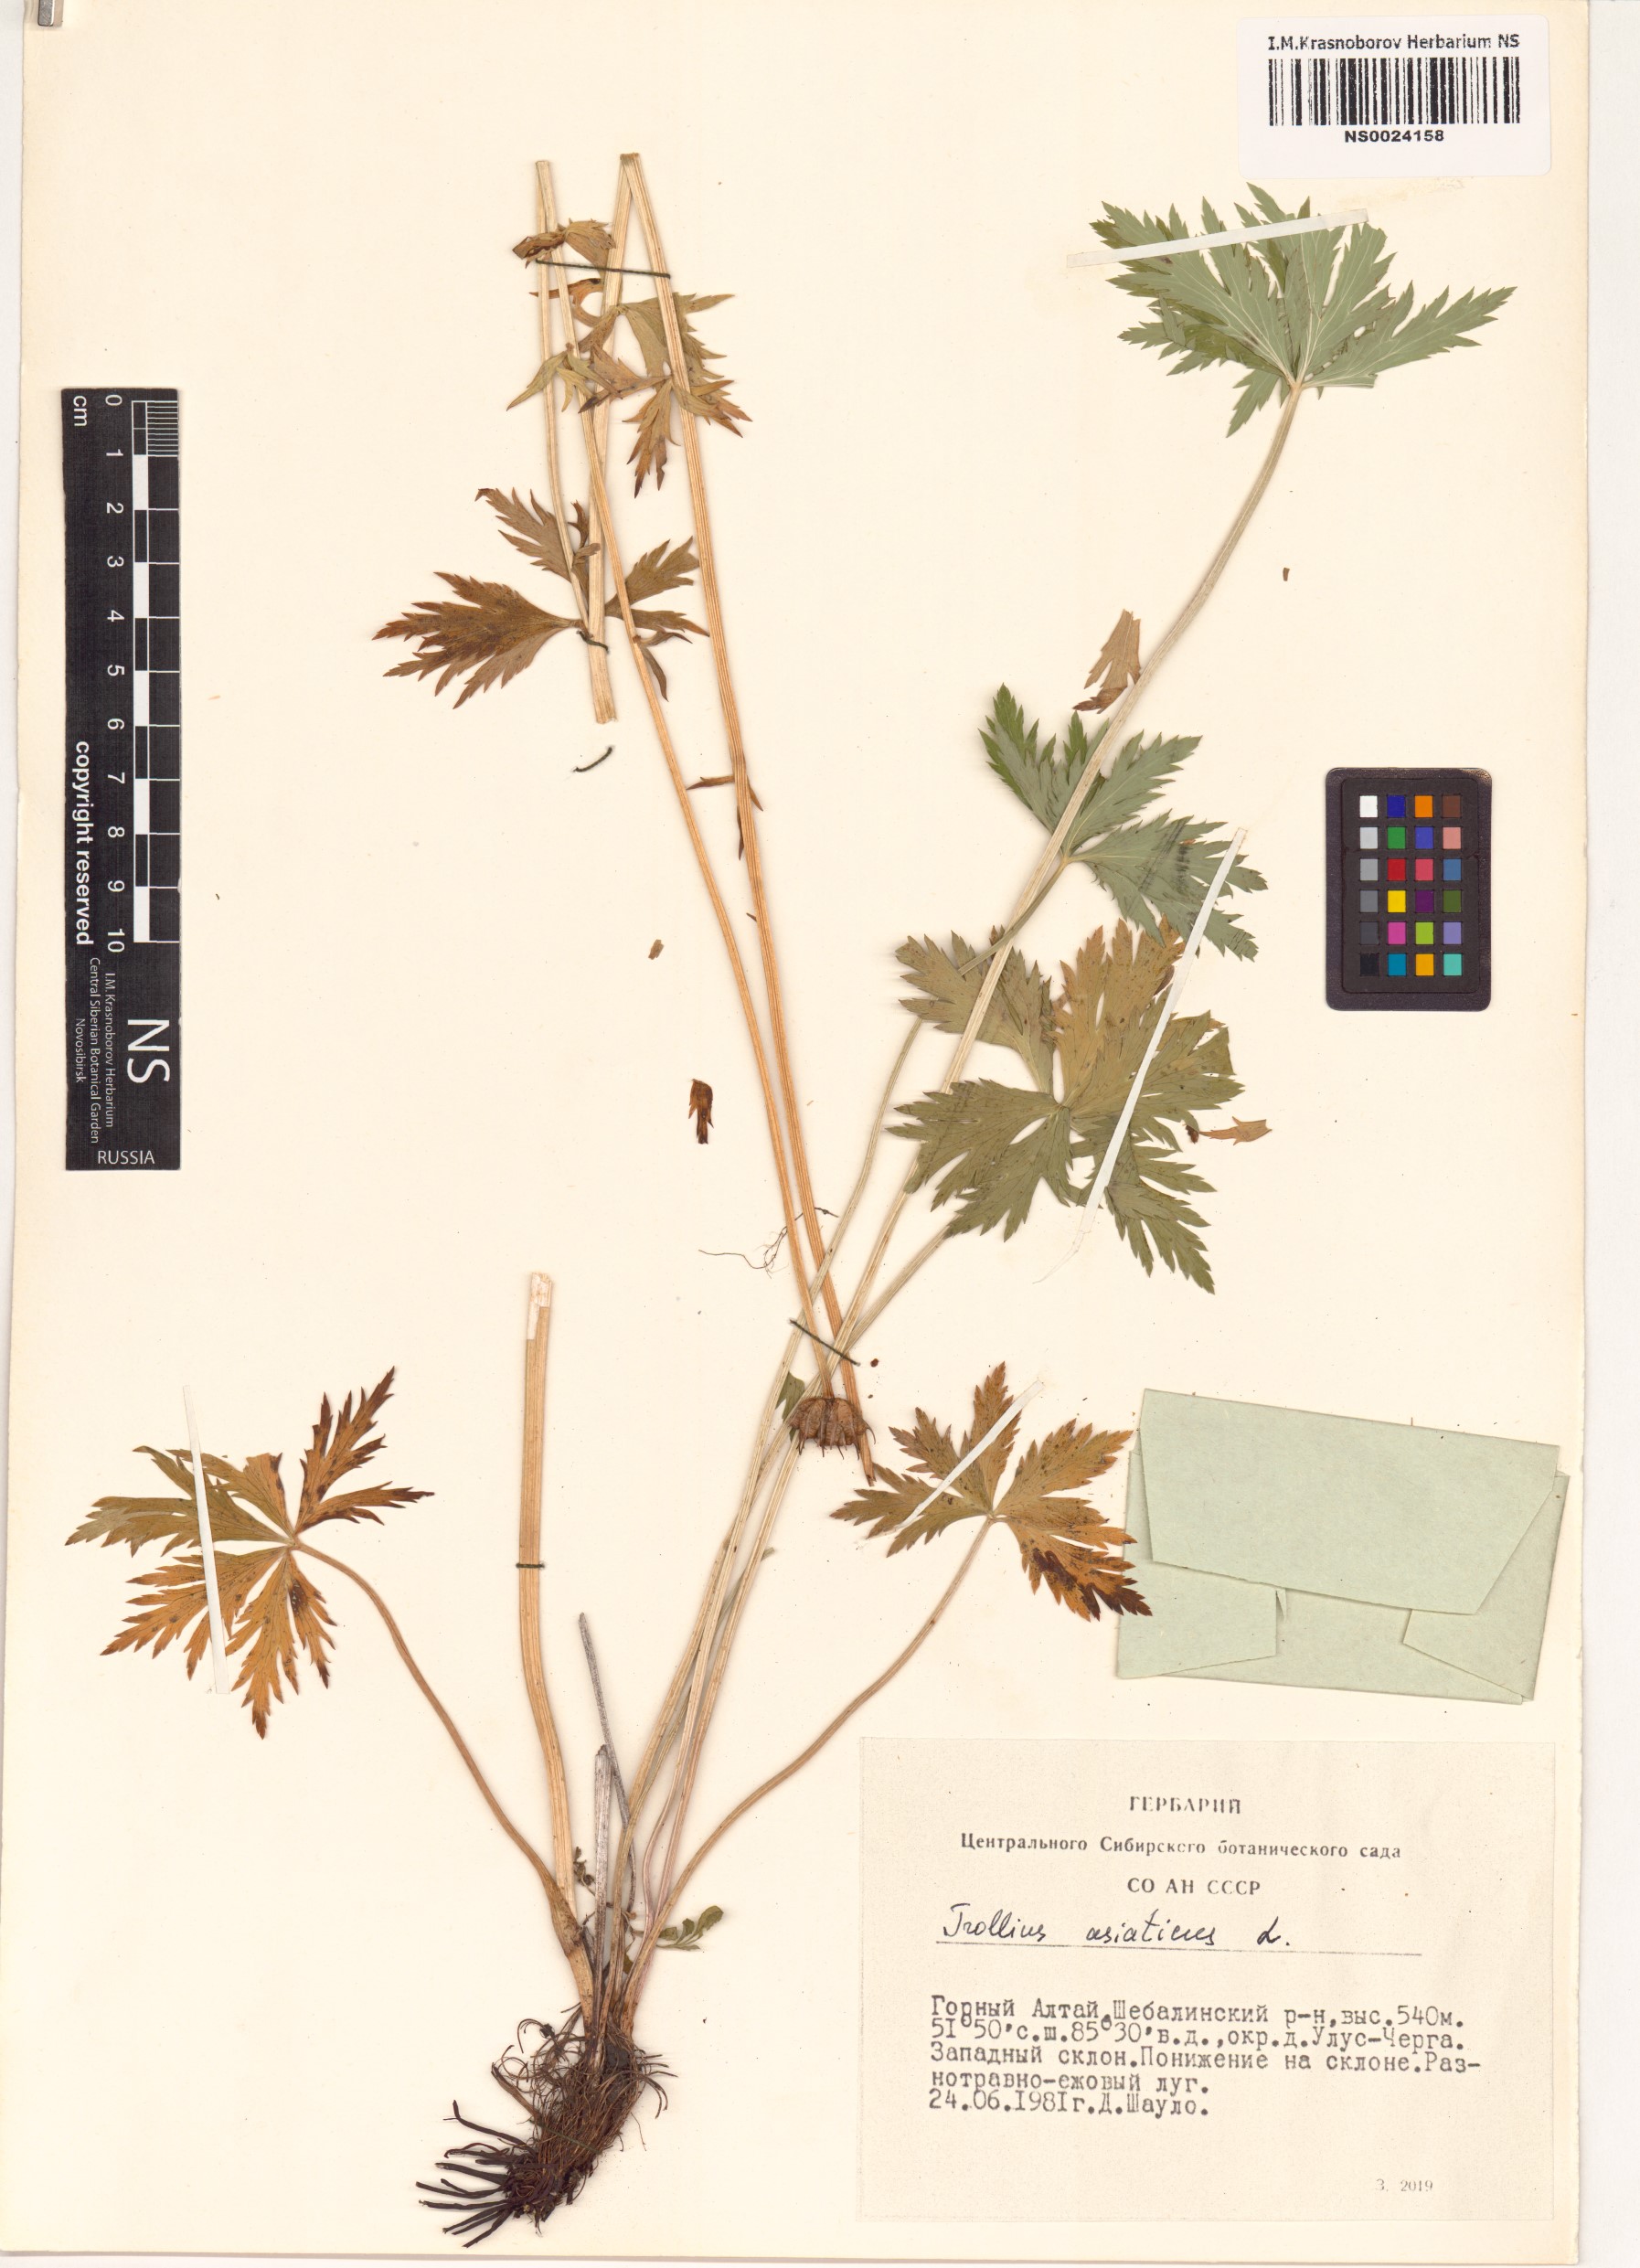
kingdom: Plantae
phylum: Tracheophyta
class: Magnoliopsida
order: Ranunculales
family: Ranunculaceae
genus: Trollius
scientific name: Trollius asiaticus
